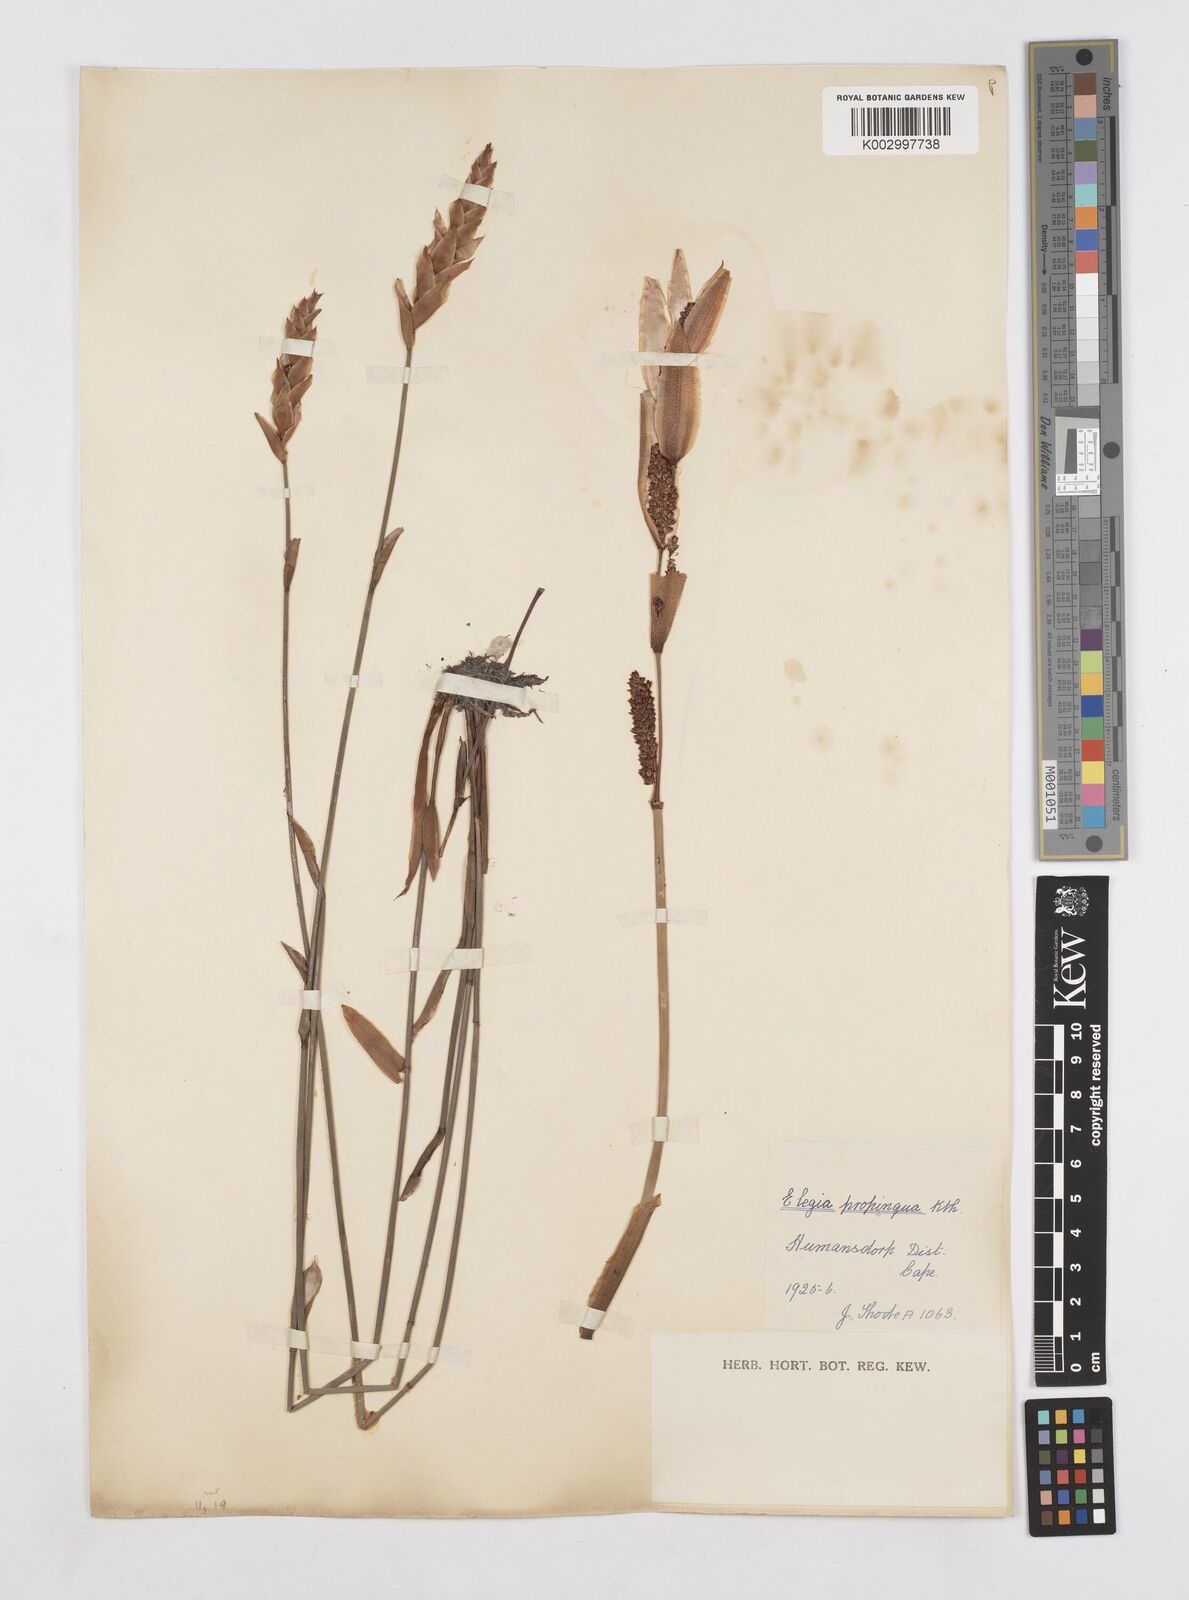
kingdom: Plantae
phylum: Tracheophyta
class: Liliopsida
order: Poales
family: Restionaceae
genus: Elegia
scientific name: Elegia juncea
